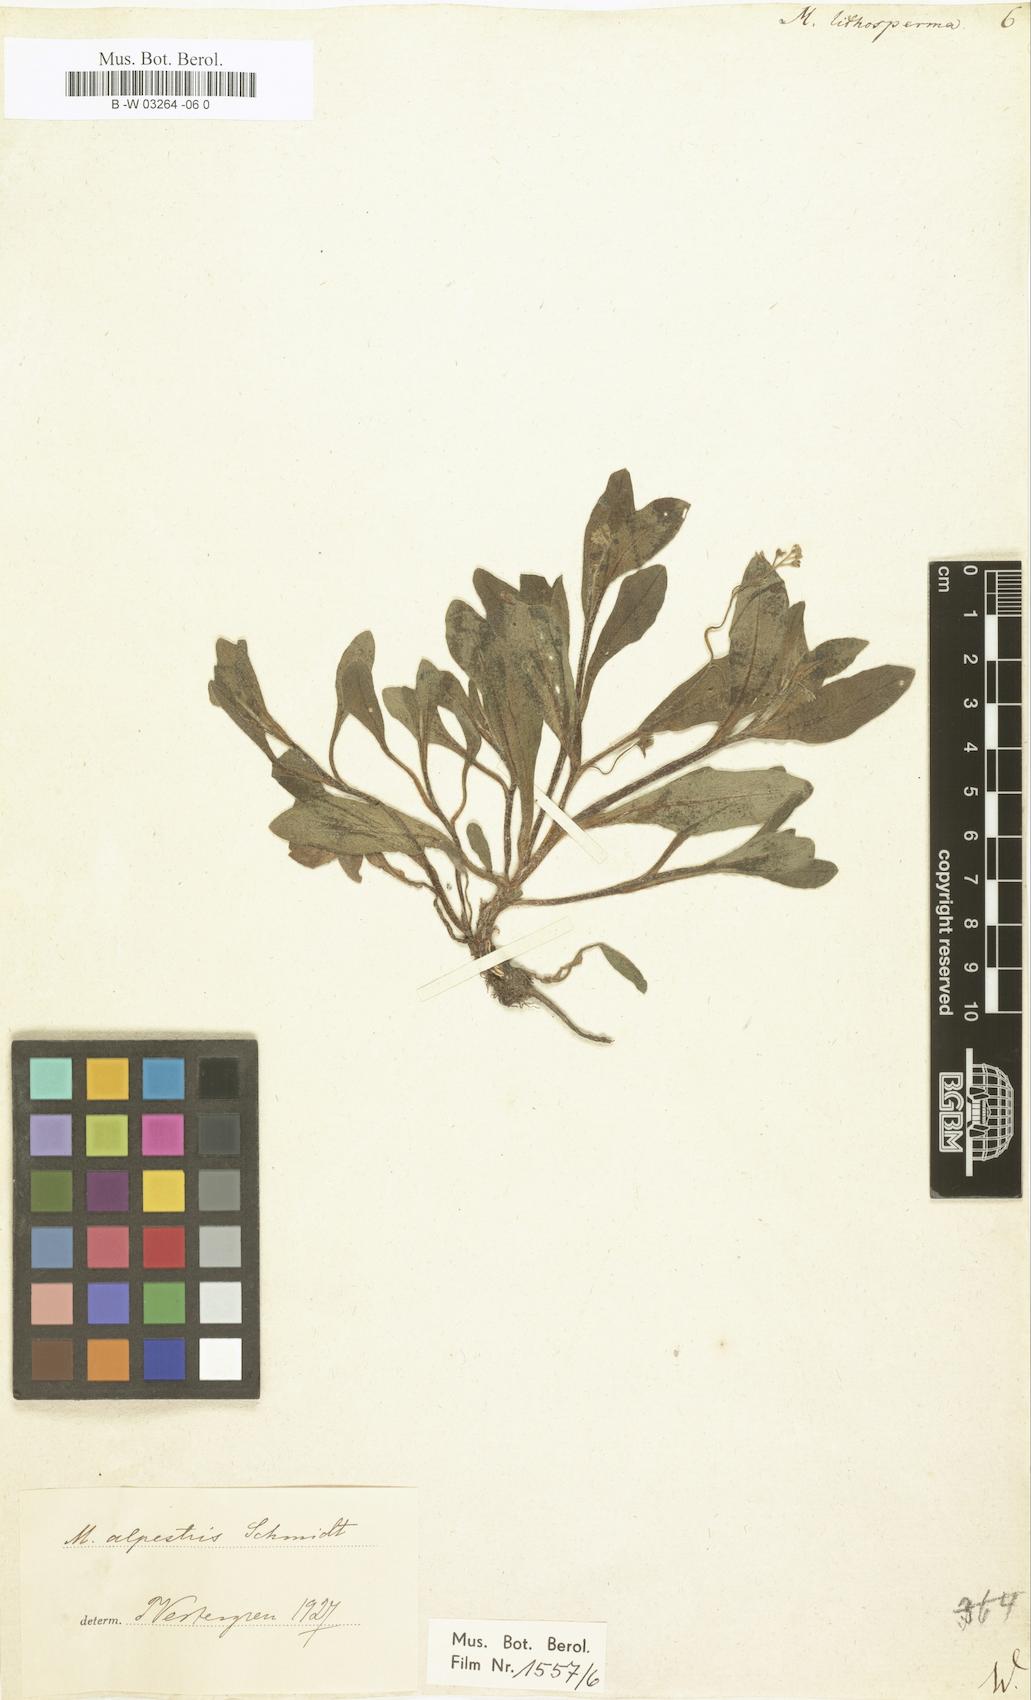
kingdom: Plantae
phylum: Tracheophyta
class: Magnoliopsida
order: Boraginales
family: Boraginaceae
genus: Myosotis
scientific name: Myosotis
